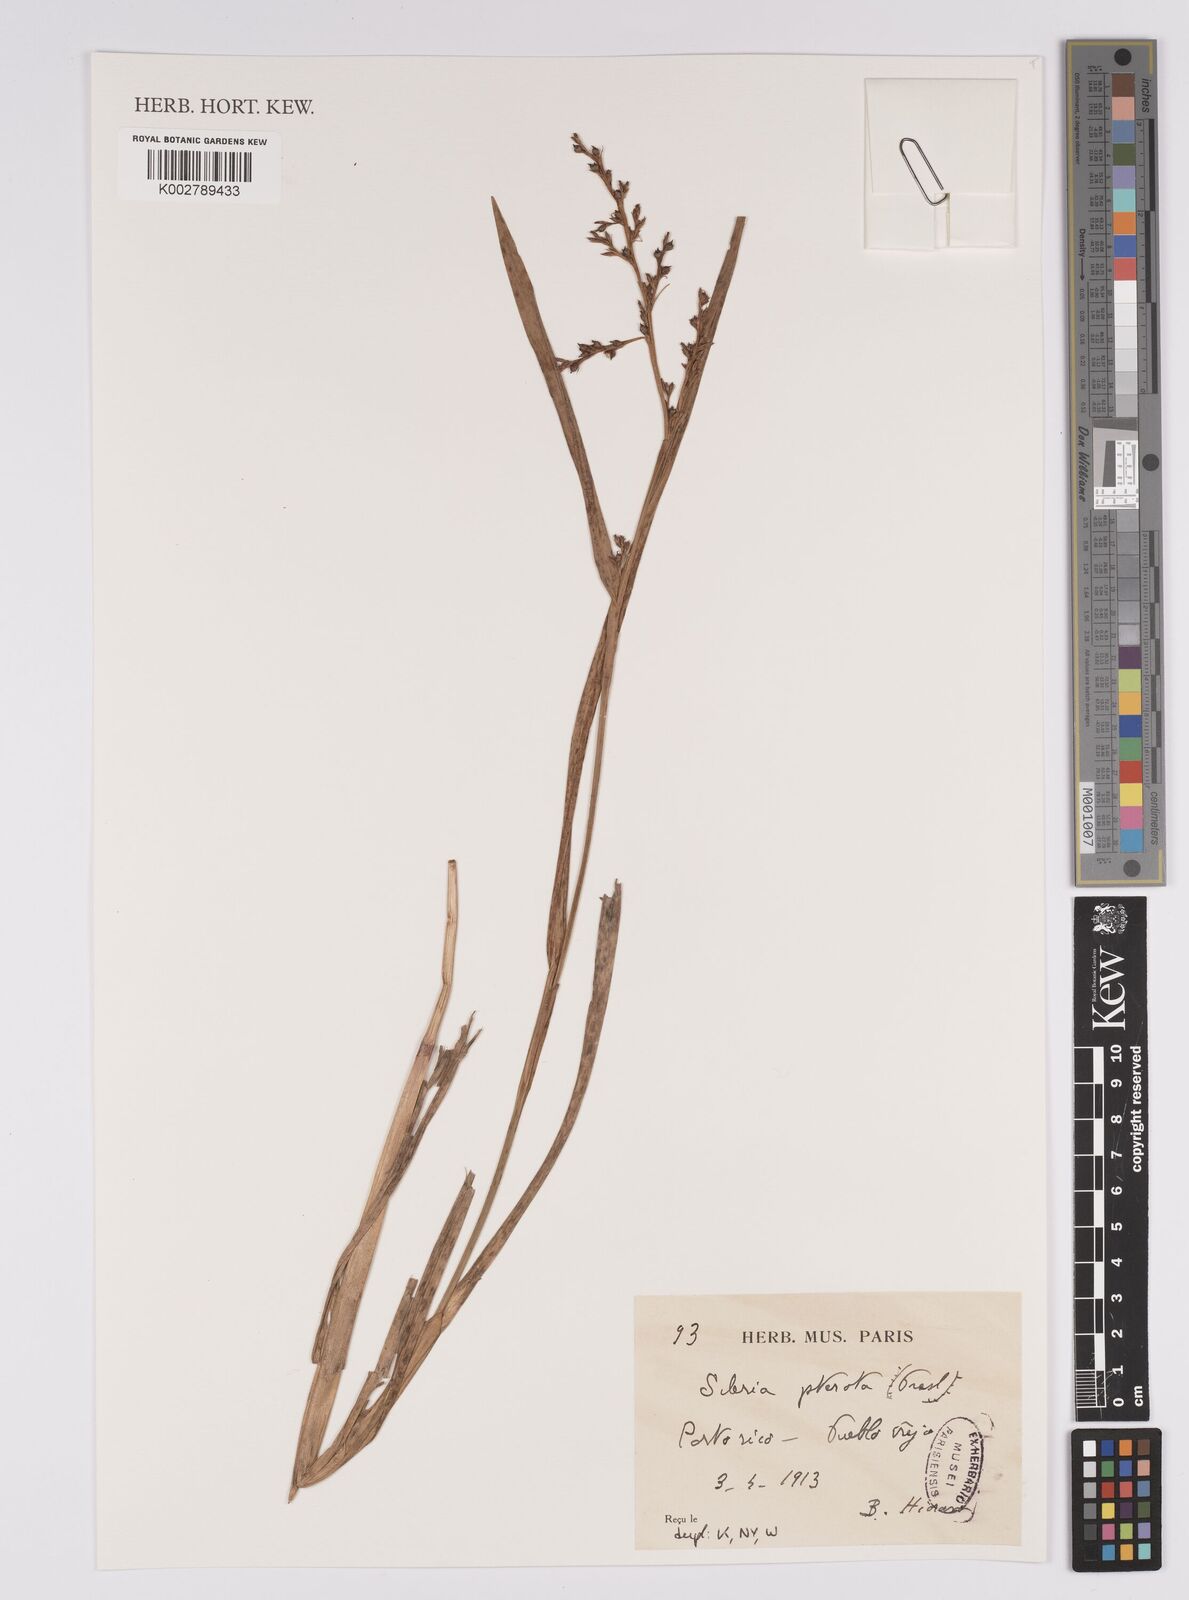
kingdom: Plantae
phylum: Tracheophyta
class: Liliopsida
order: Poales
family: Cyperaceae
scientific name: Cyperaceae
